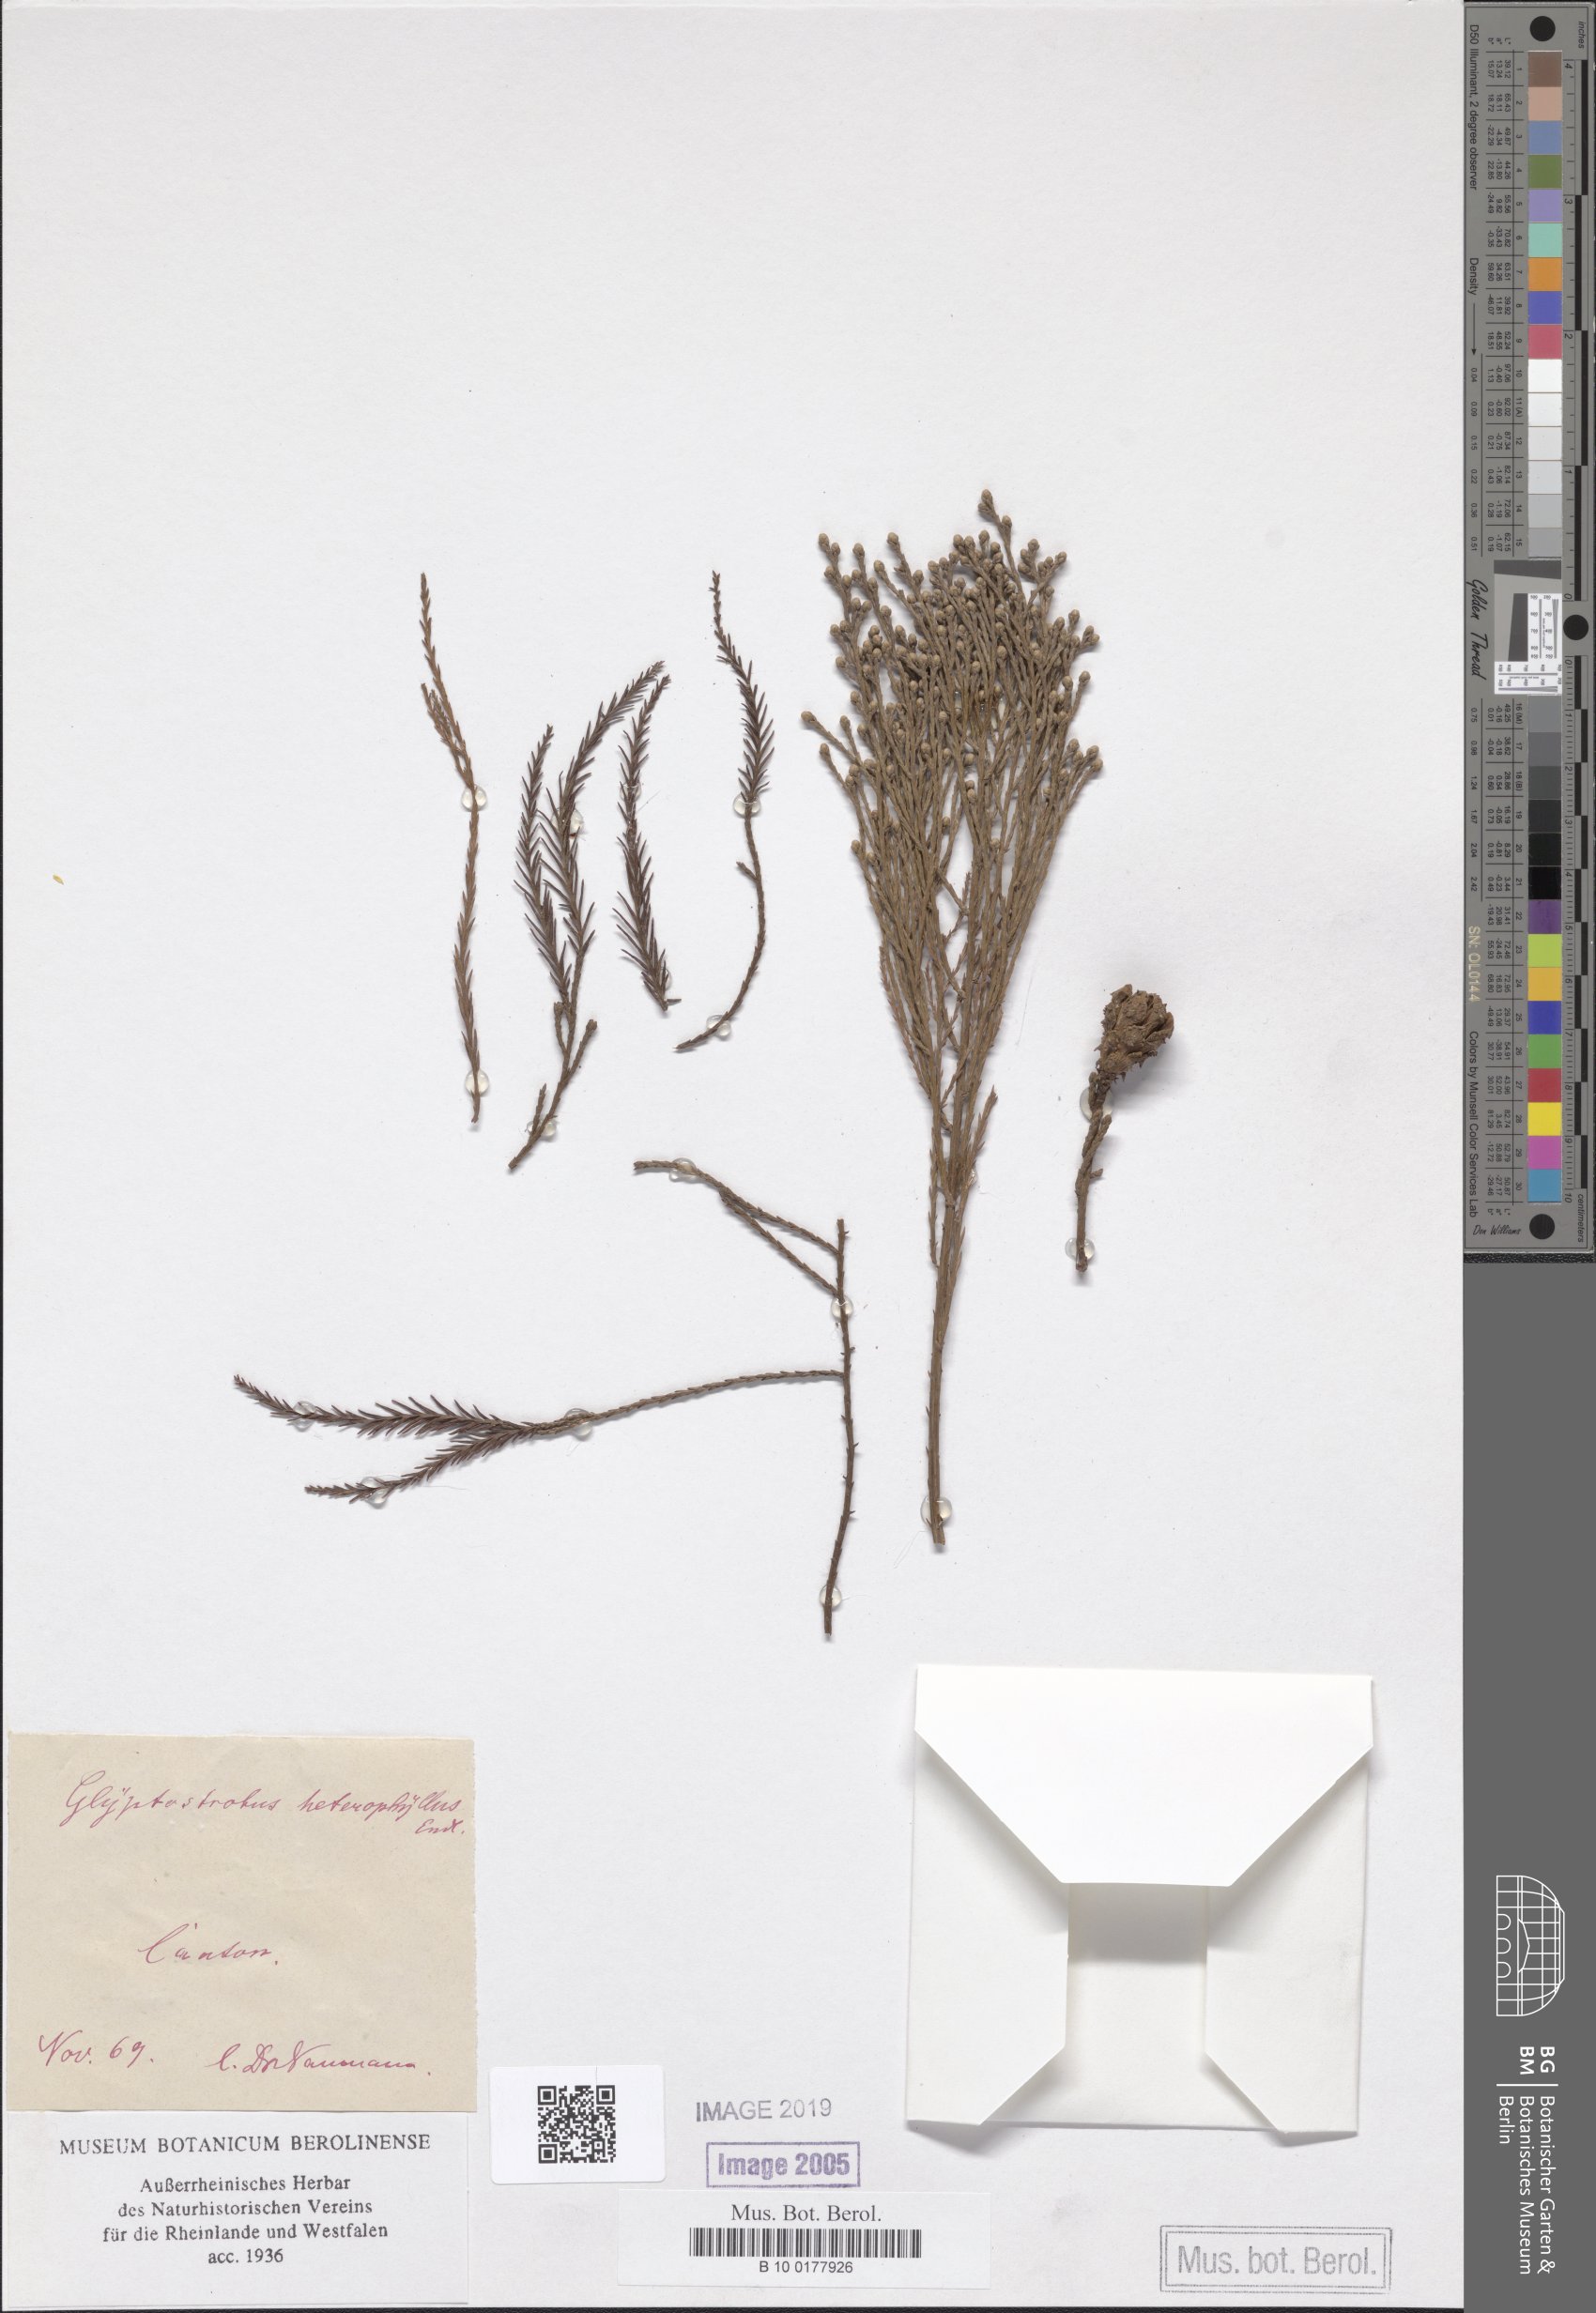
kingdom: Plantae
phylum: Tracheophyta
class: Pinopsida
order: Pinales
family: Cupressaceae
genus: Glyptostrobus
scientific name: Glyptostrobus pensilis
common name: Chines swamp cypress
